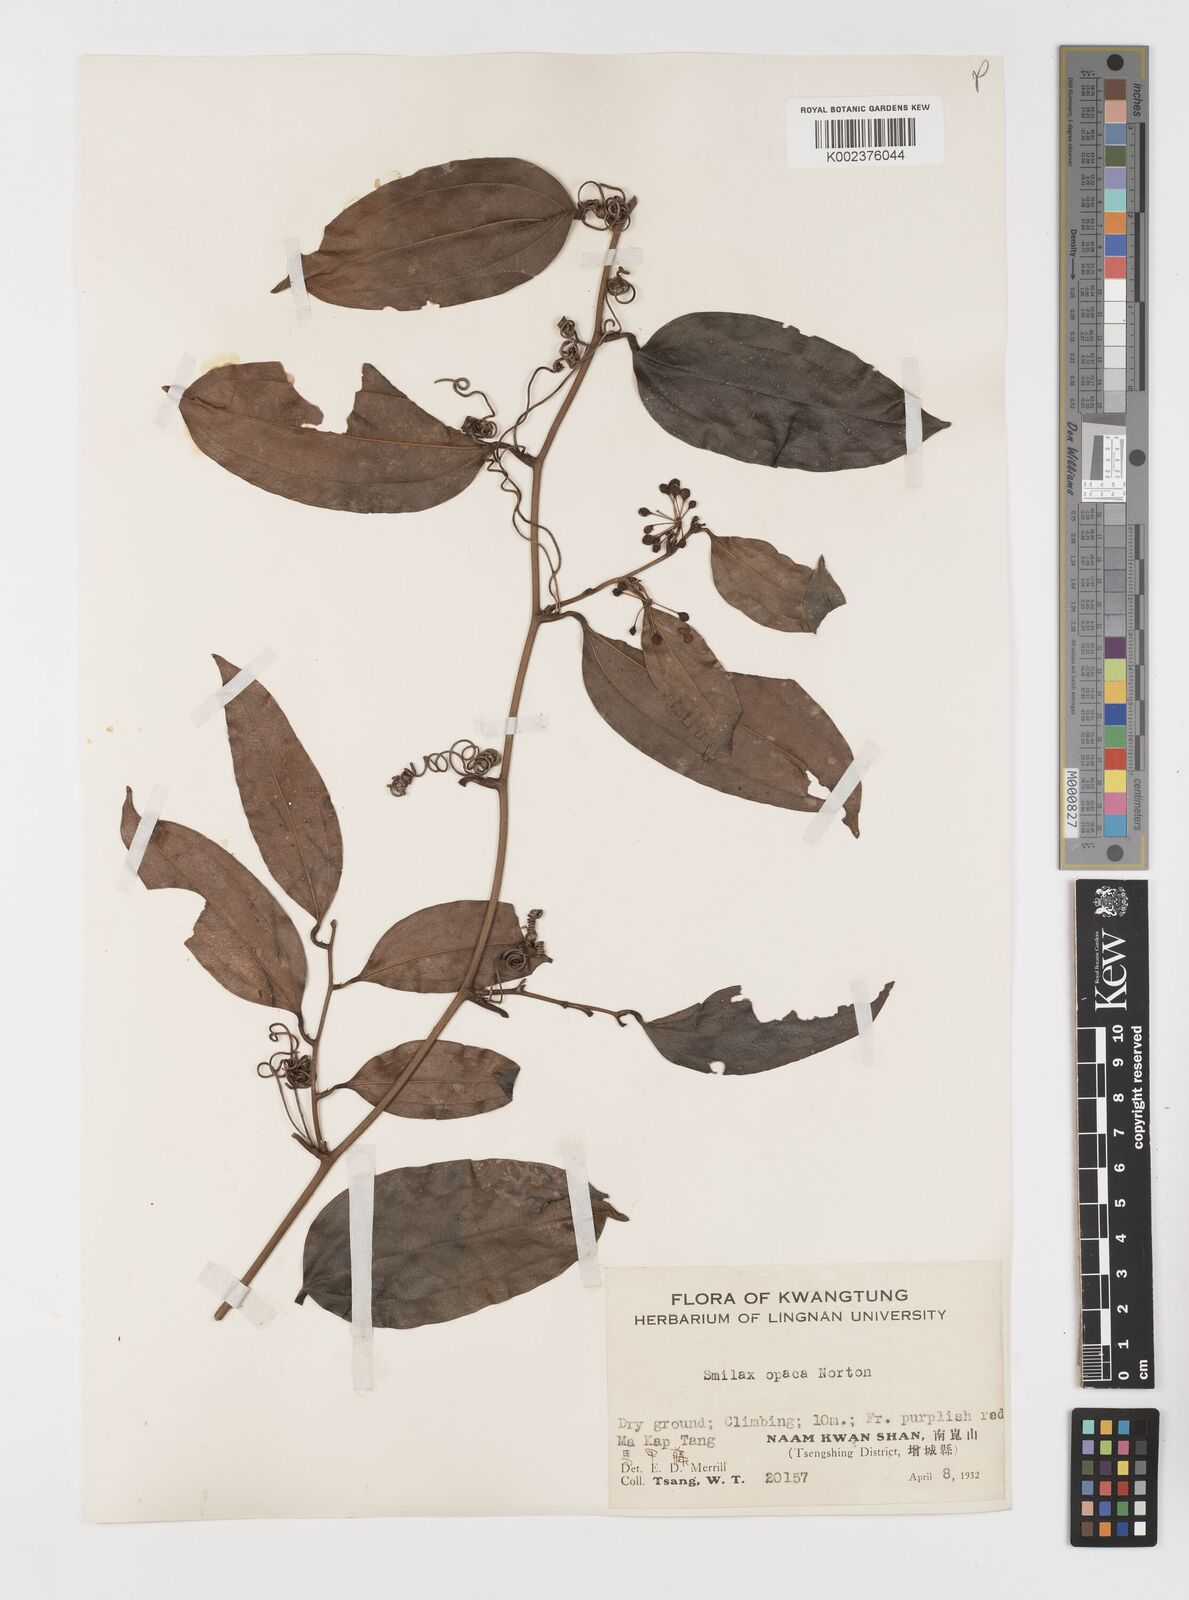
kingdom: Plantae
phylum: Tracheophyta
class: Liliopsida
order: Liliales
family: Smilacaceae
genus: Smilax
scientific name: Smilax laevis
